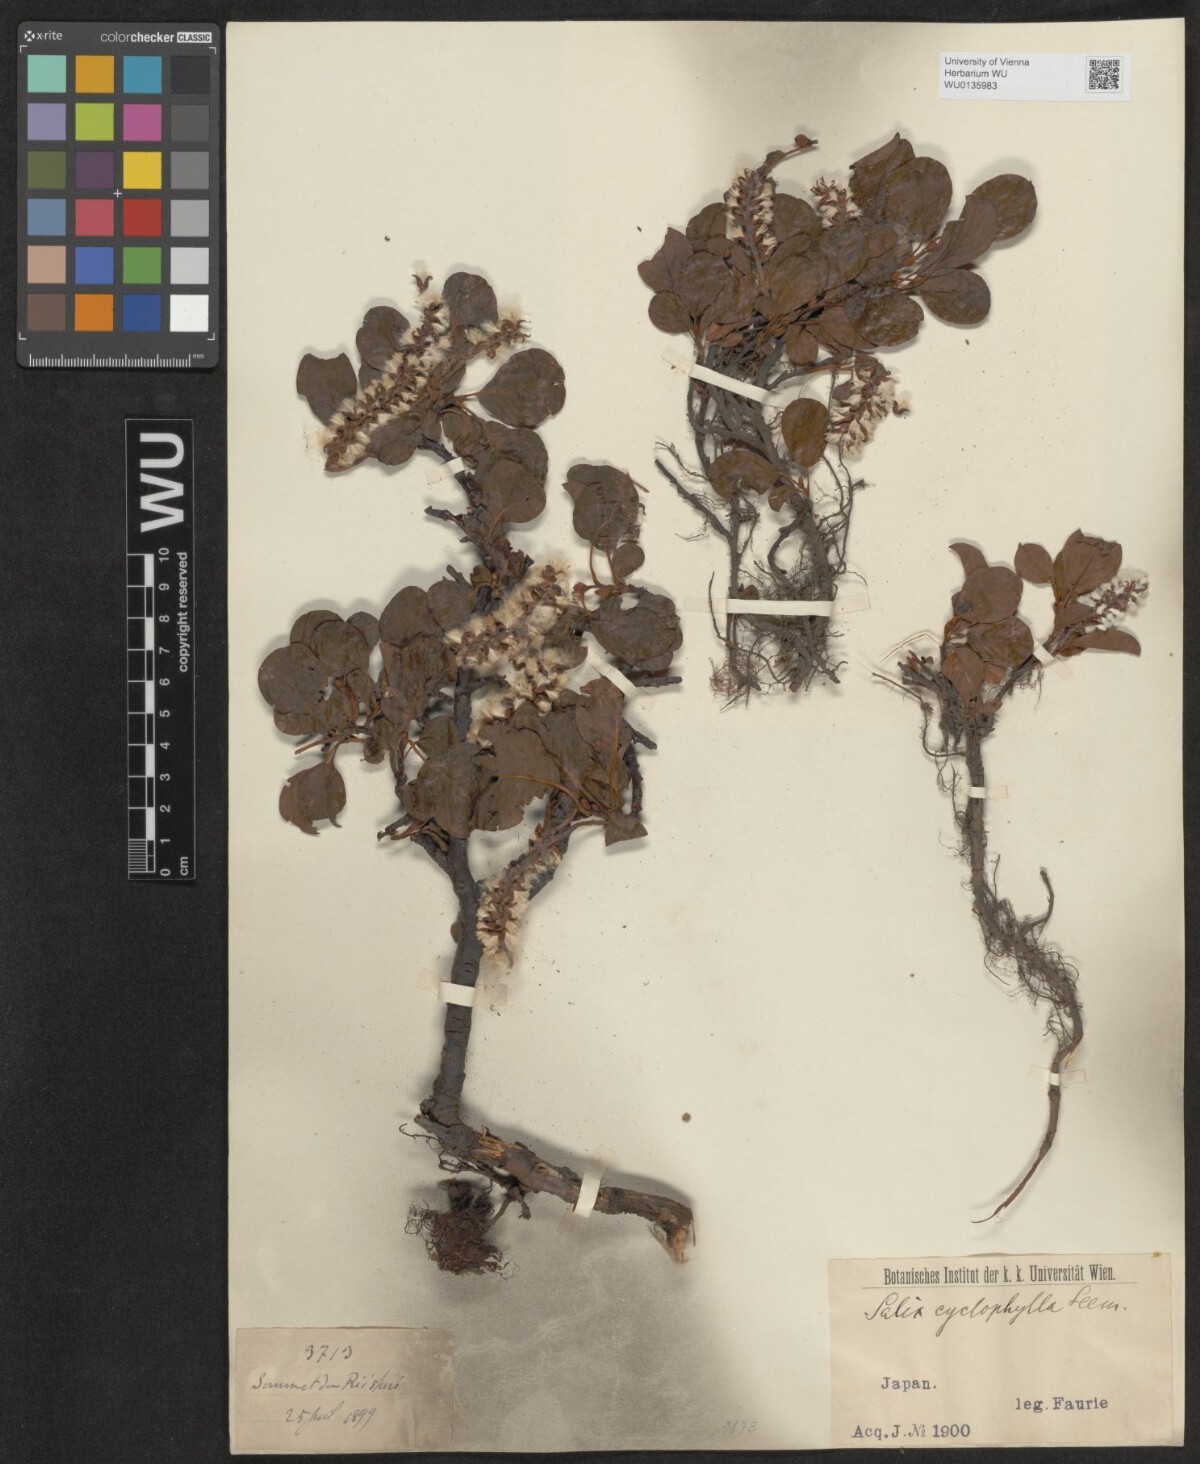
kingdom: Plantae
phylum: Tracheophyta
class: Magnoliopsida
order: Malpighiales
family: Salicaceae
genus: Salix
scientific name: Salix nakamurana
